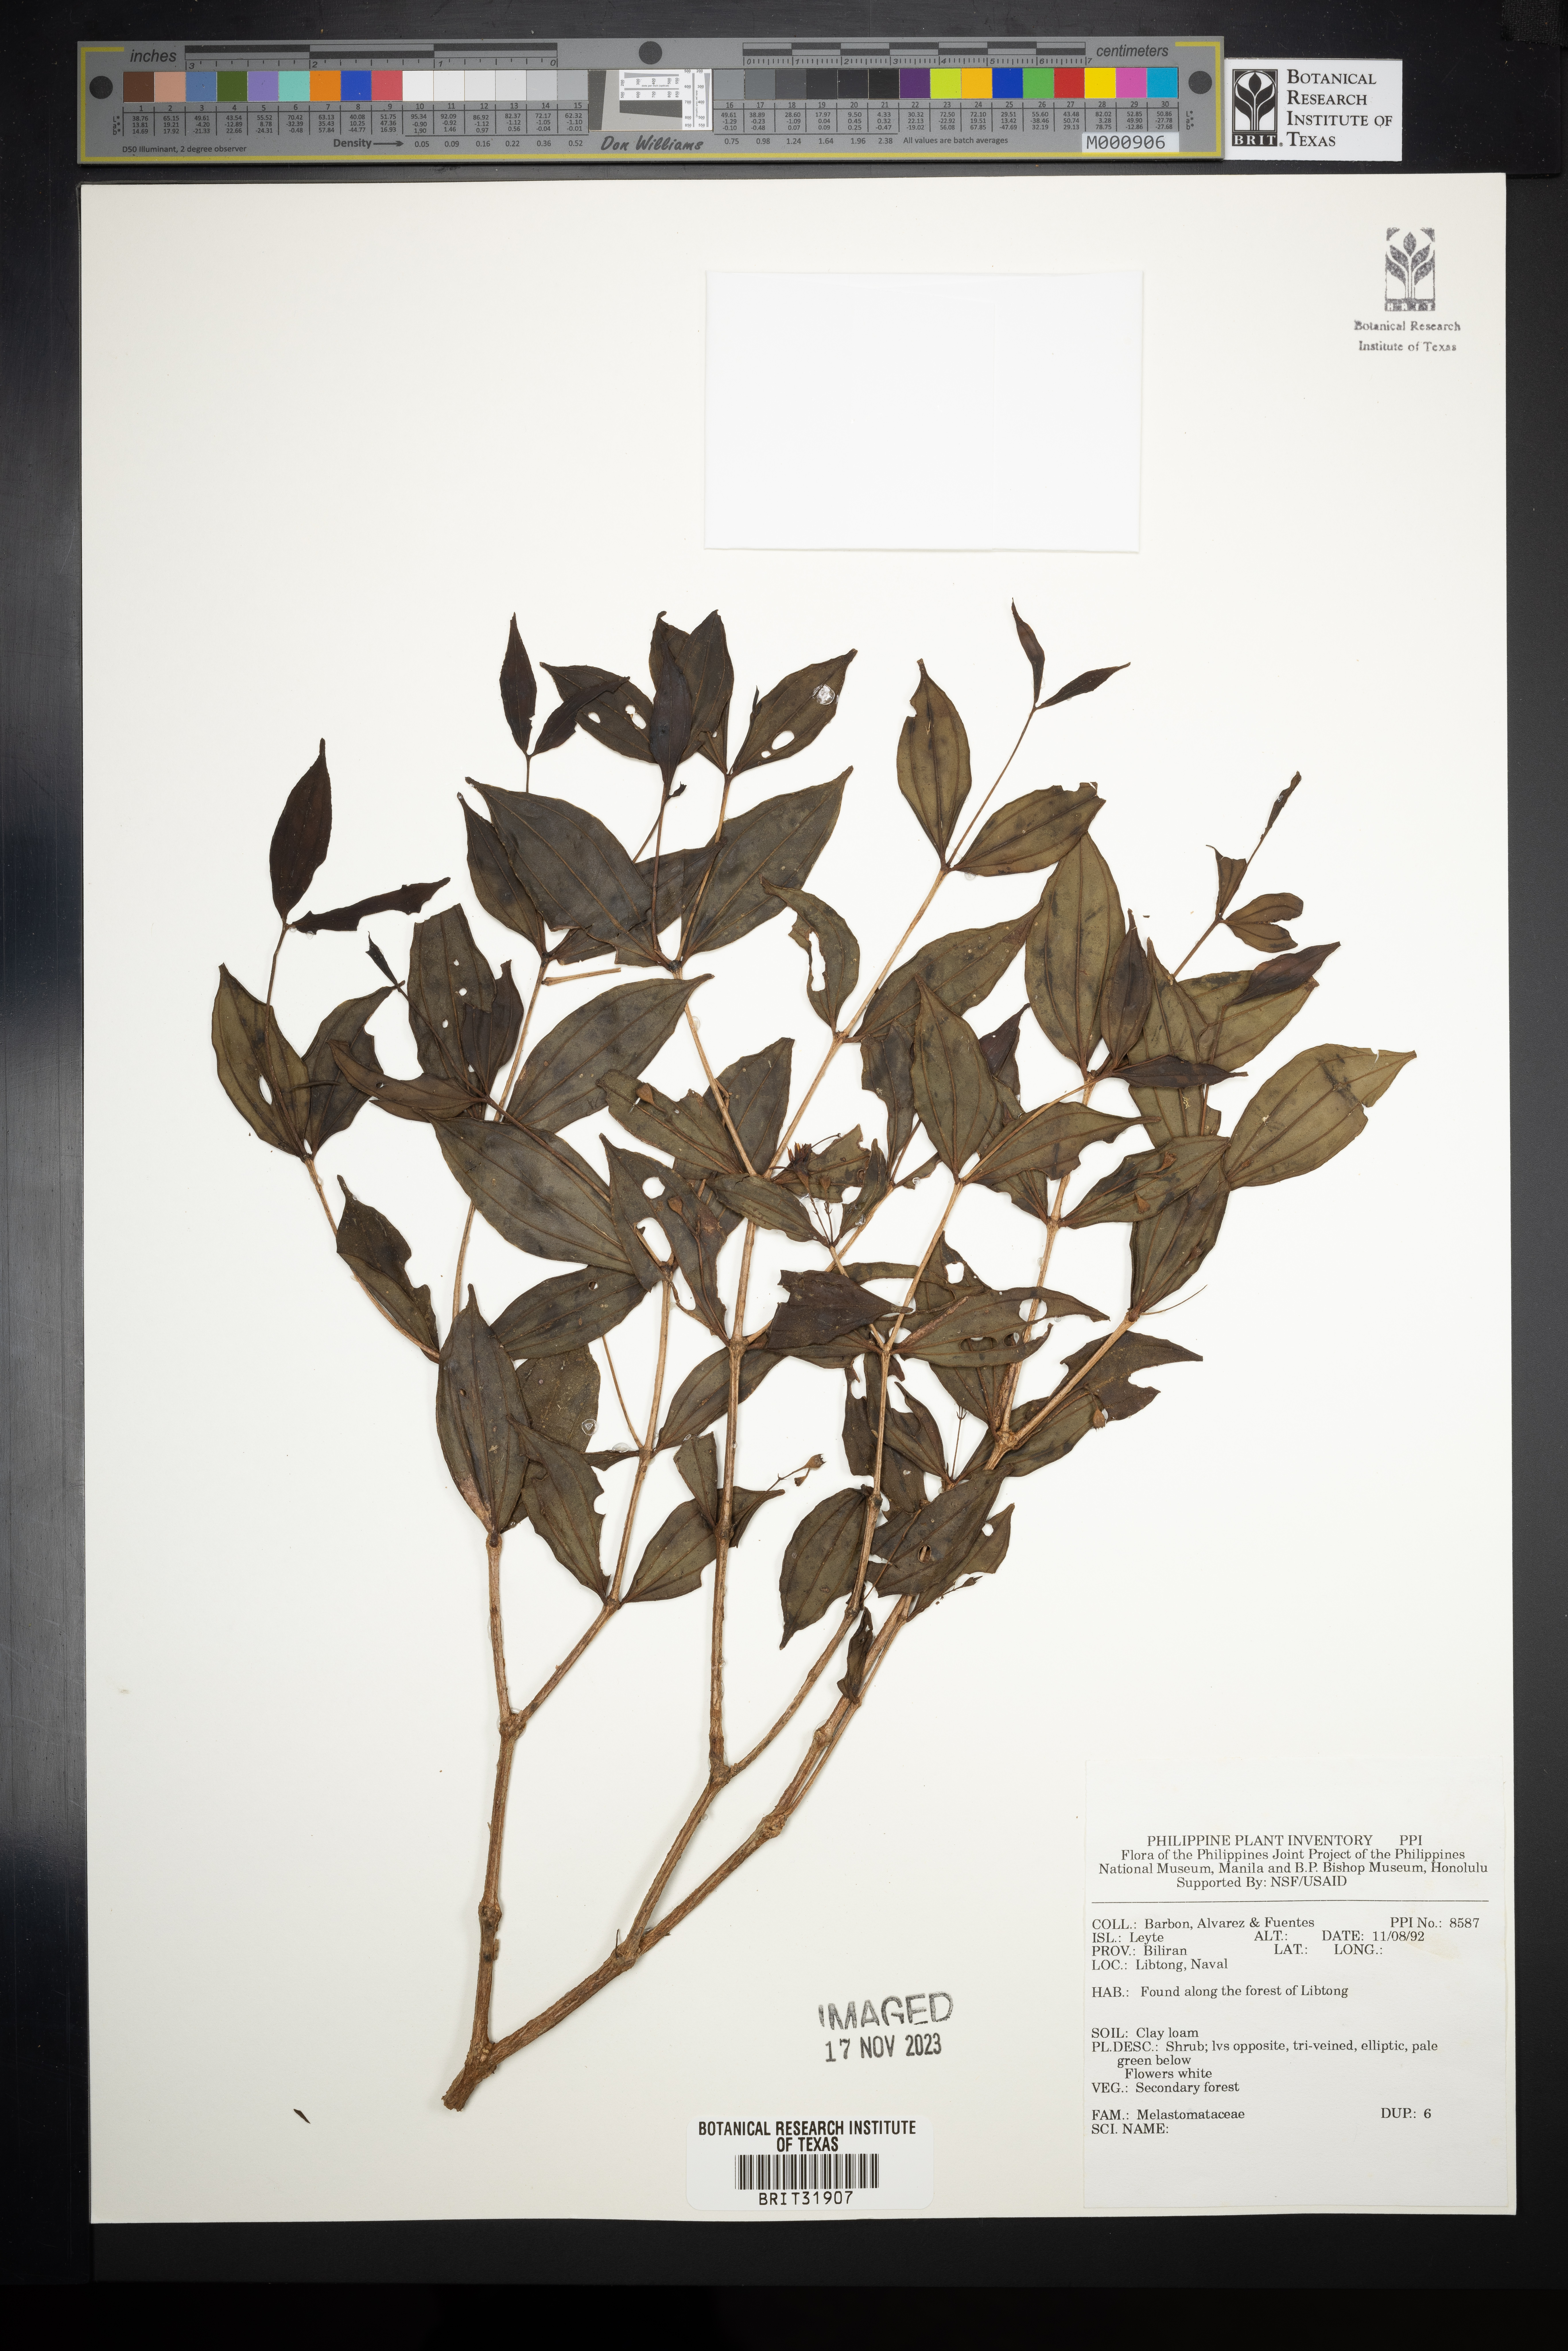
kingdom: Plantae
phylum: Tracheophyta
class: Magnoliopsida
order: Myrtales
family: Melastomataceae
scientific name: Melastomataceae
